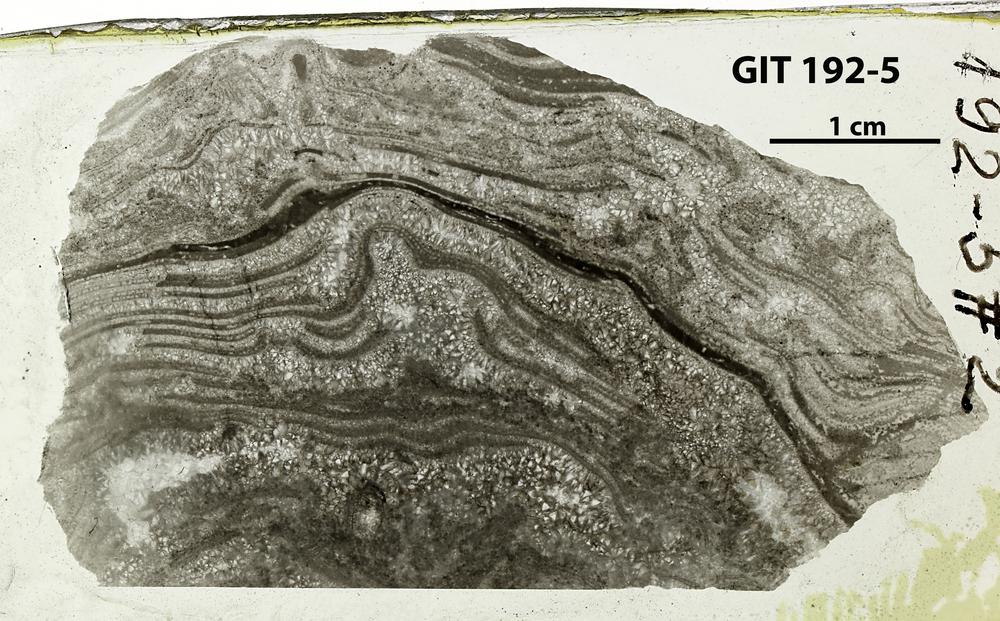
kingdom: Animalia
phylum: Porifera
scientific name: Porifera
